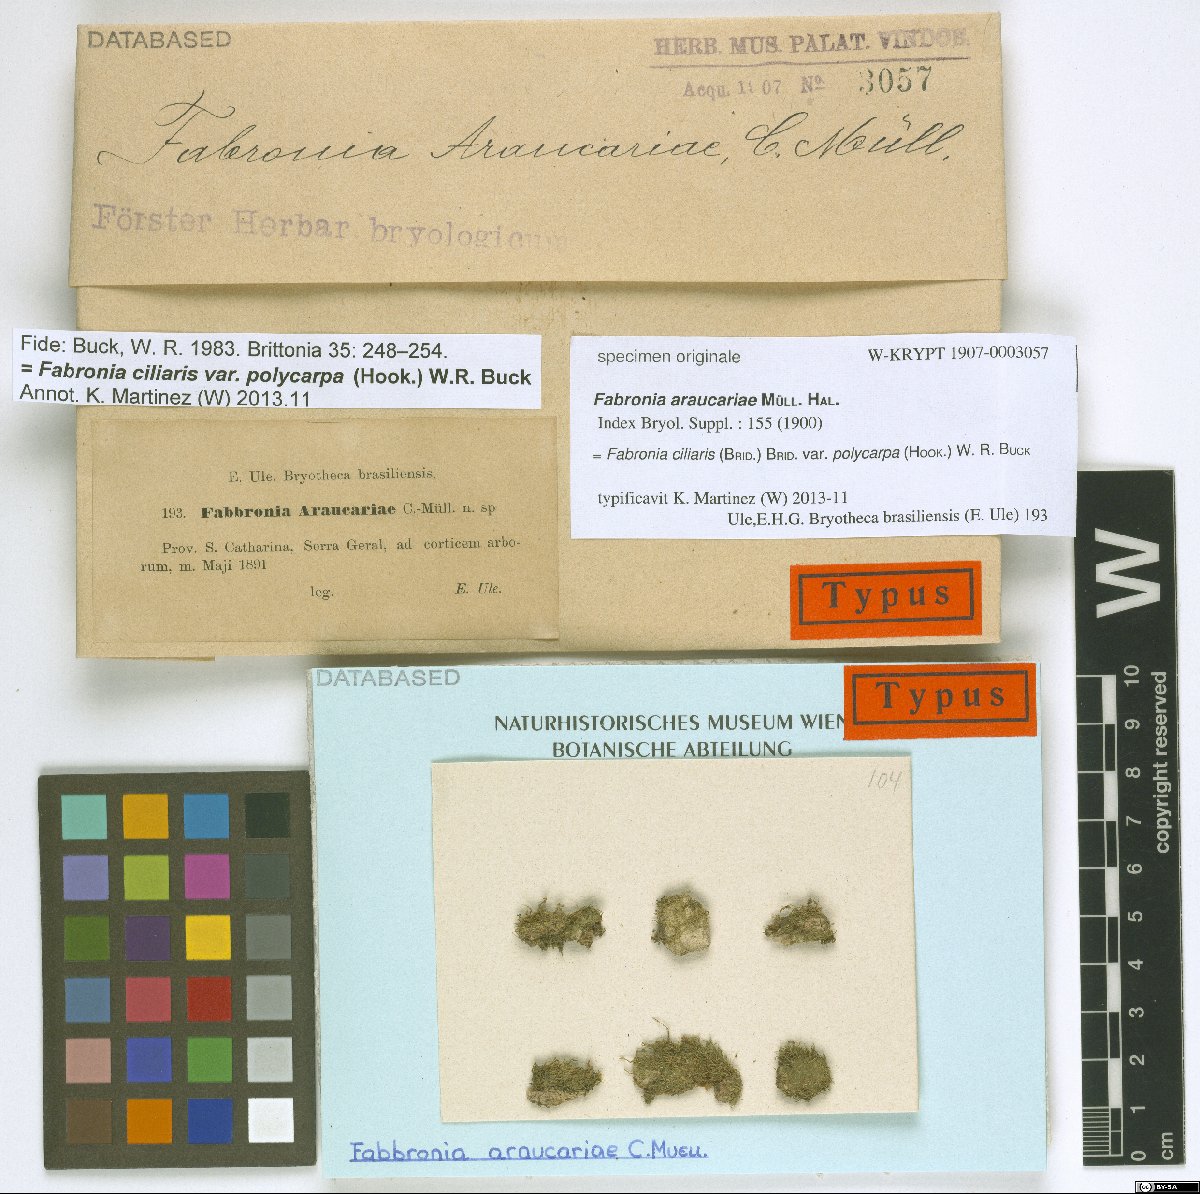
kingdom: Plantae
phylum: Bryophyta
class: Bryopsida
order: Hypnales
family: Fabroniaceae
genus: Fabronia
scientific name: Fabronia ciliaris
